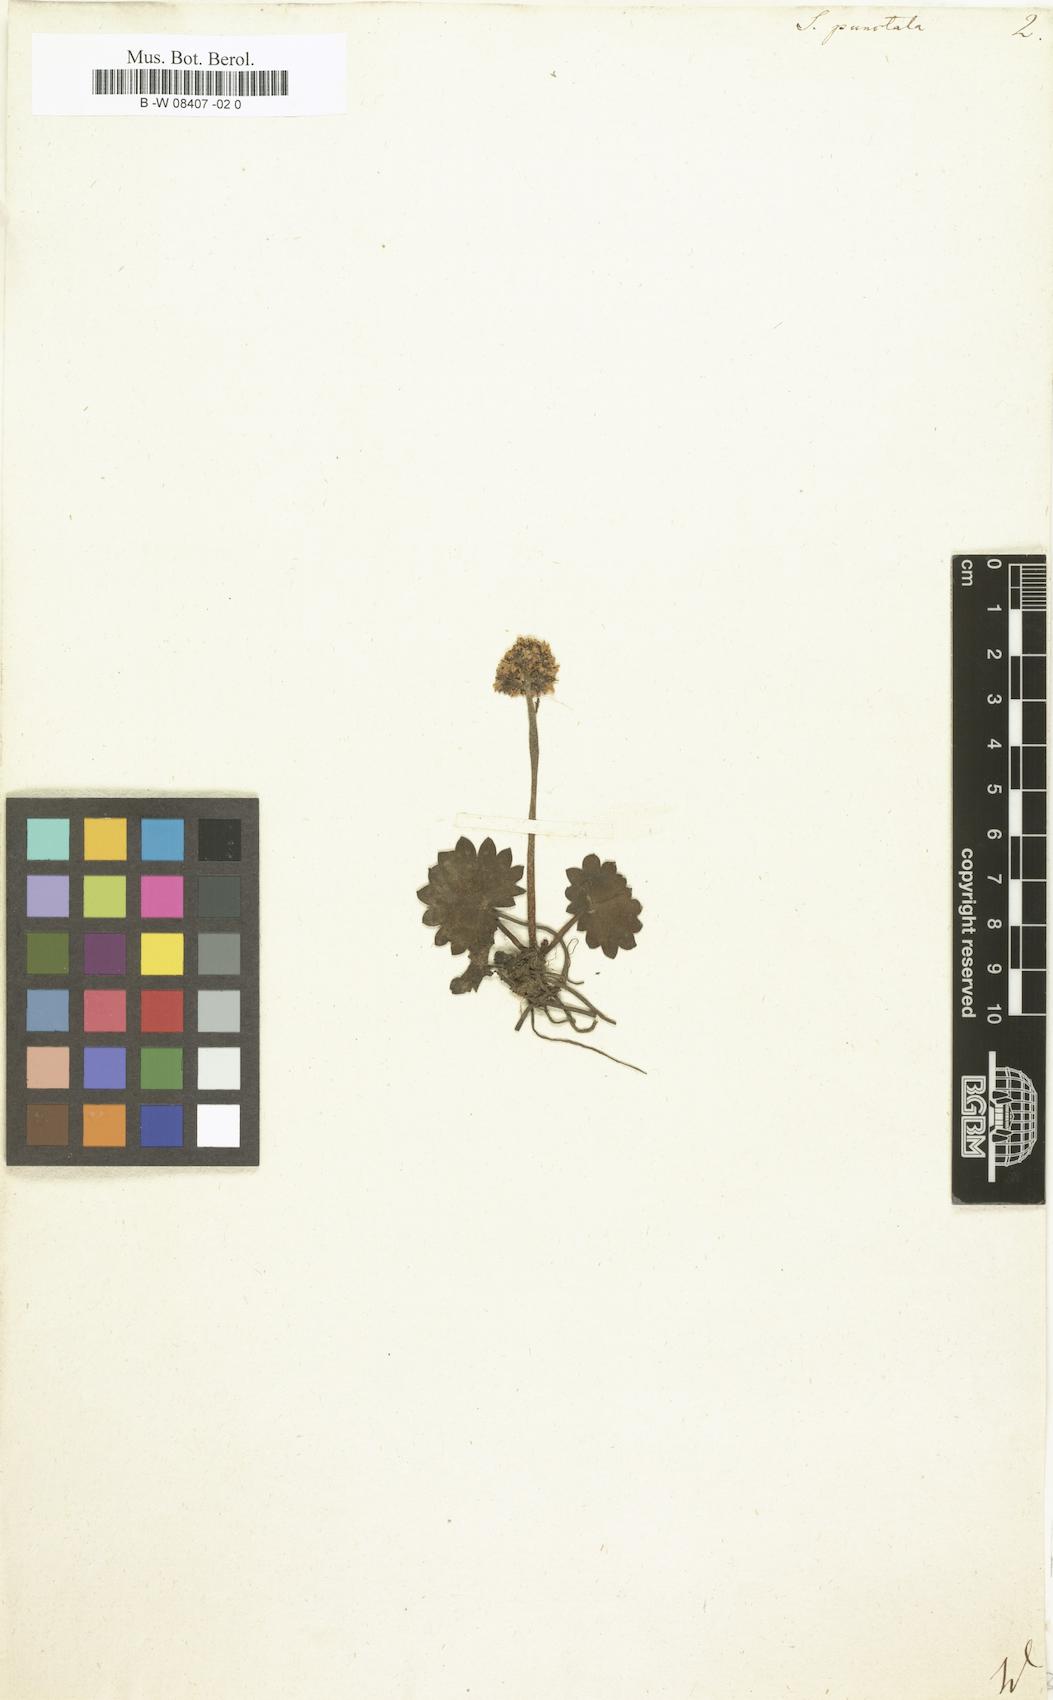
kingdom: Plantae
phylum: Tracheophyta
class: Magnoliopsida
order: Saxifragales
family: Saxifragaceae
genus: Micranthes
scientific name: Micranthes punctata
